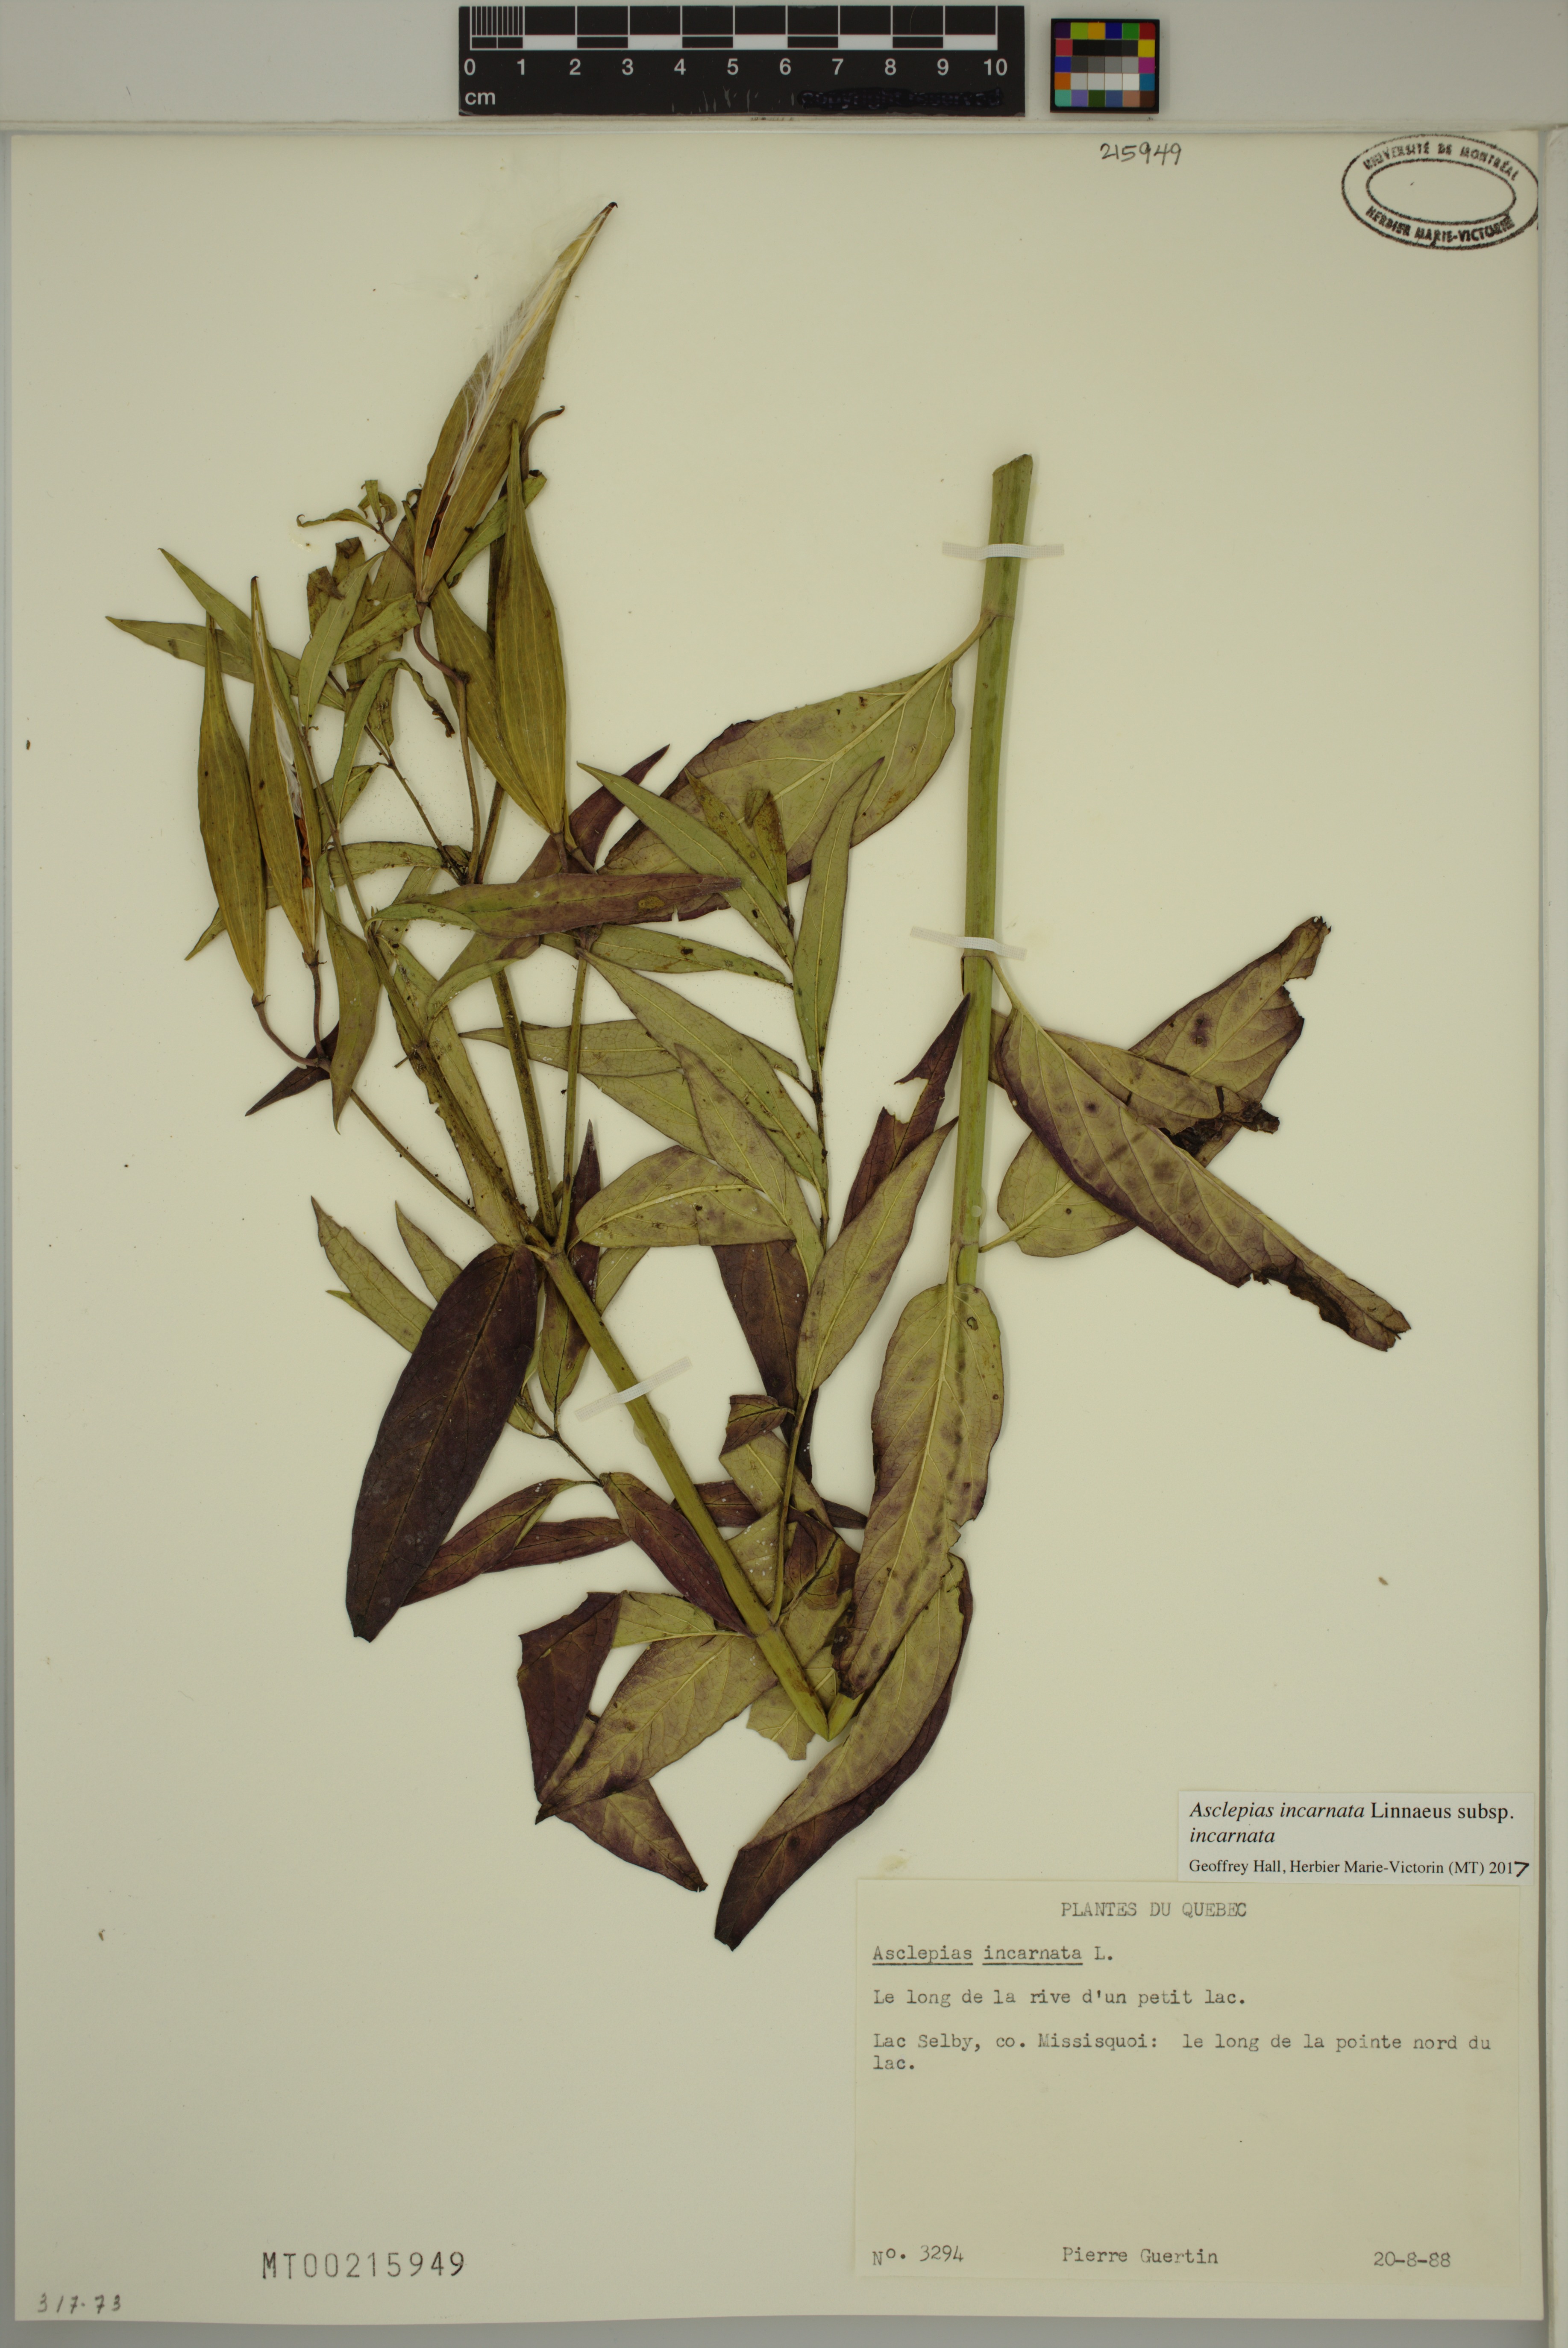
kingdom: Plantae
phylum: Tracheophyta
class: Magnoliopsida
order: Gentianales
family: Apocynaceae
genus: Asclepias
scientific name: Asclepias incarnata
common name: Swamp milkweed
